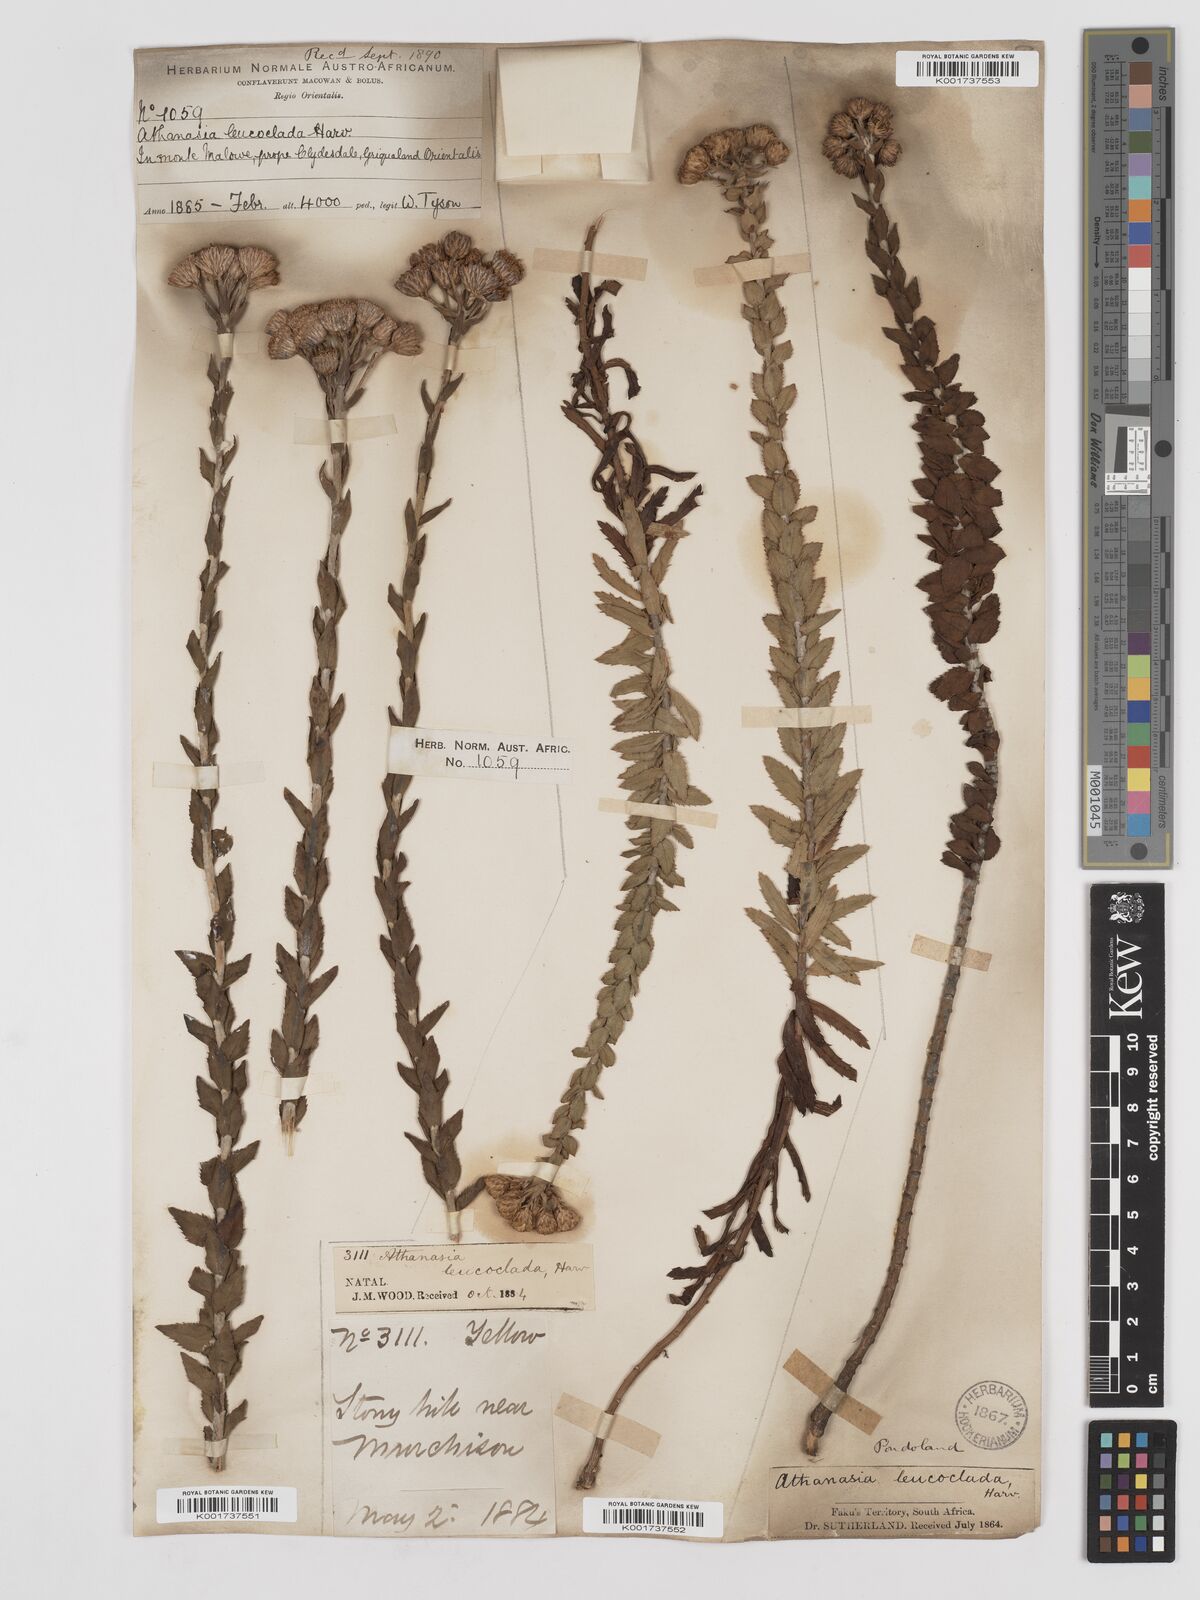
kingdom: Plantae
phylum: Tracheophyta
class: Magnoliopsida
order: Asterales
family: Asteraceae
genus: Inulanthera
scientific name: Inulanthera leucoclada
